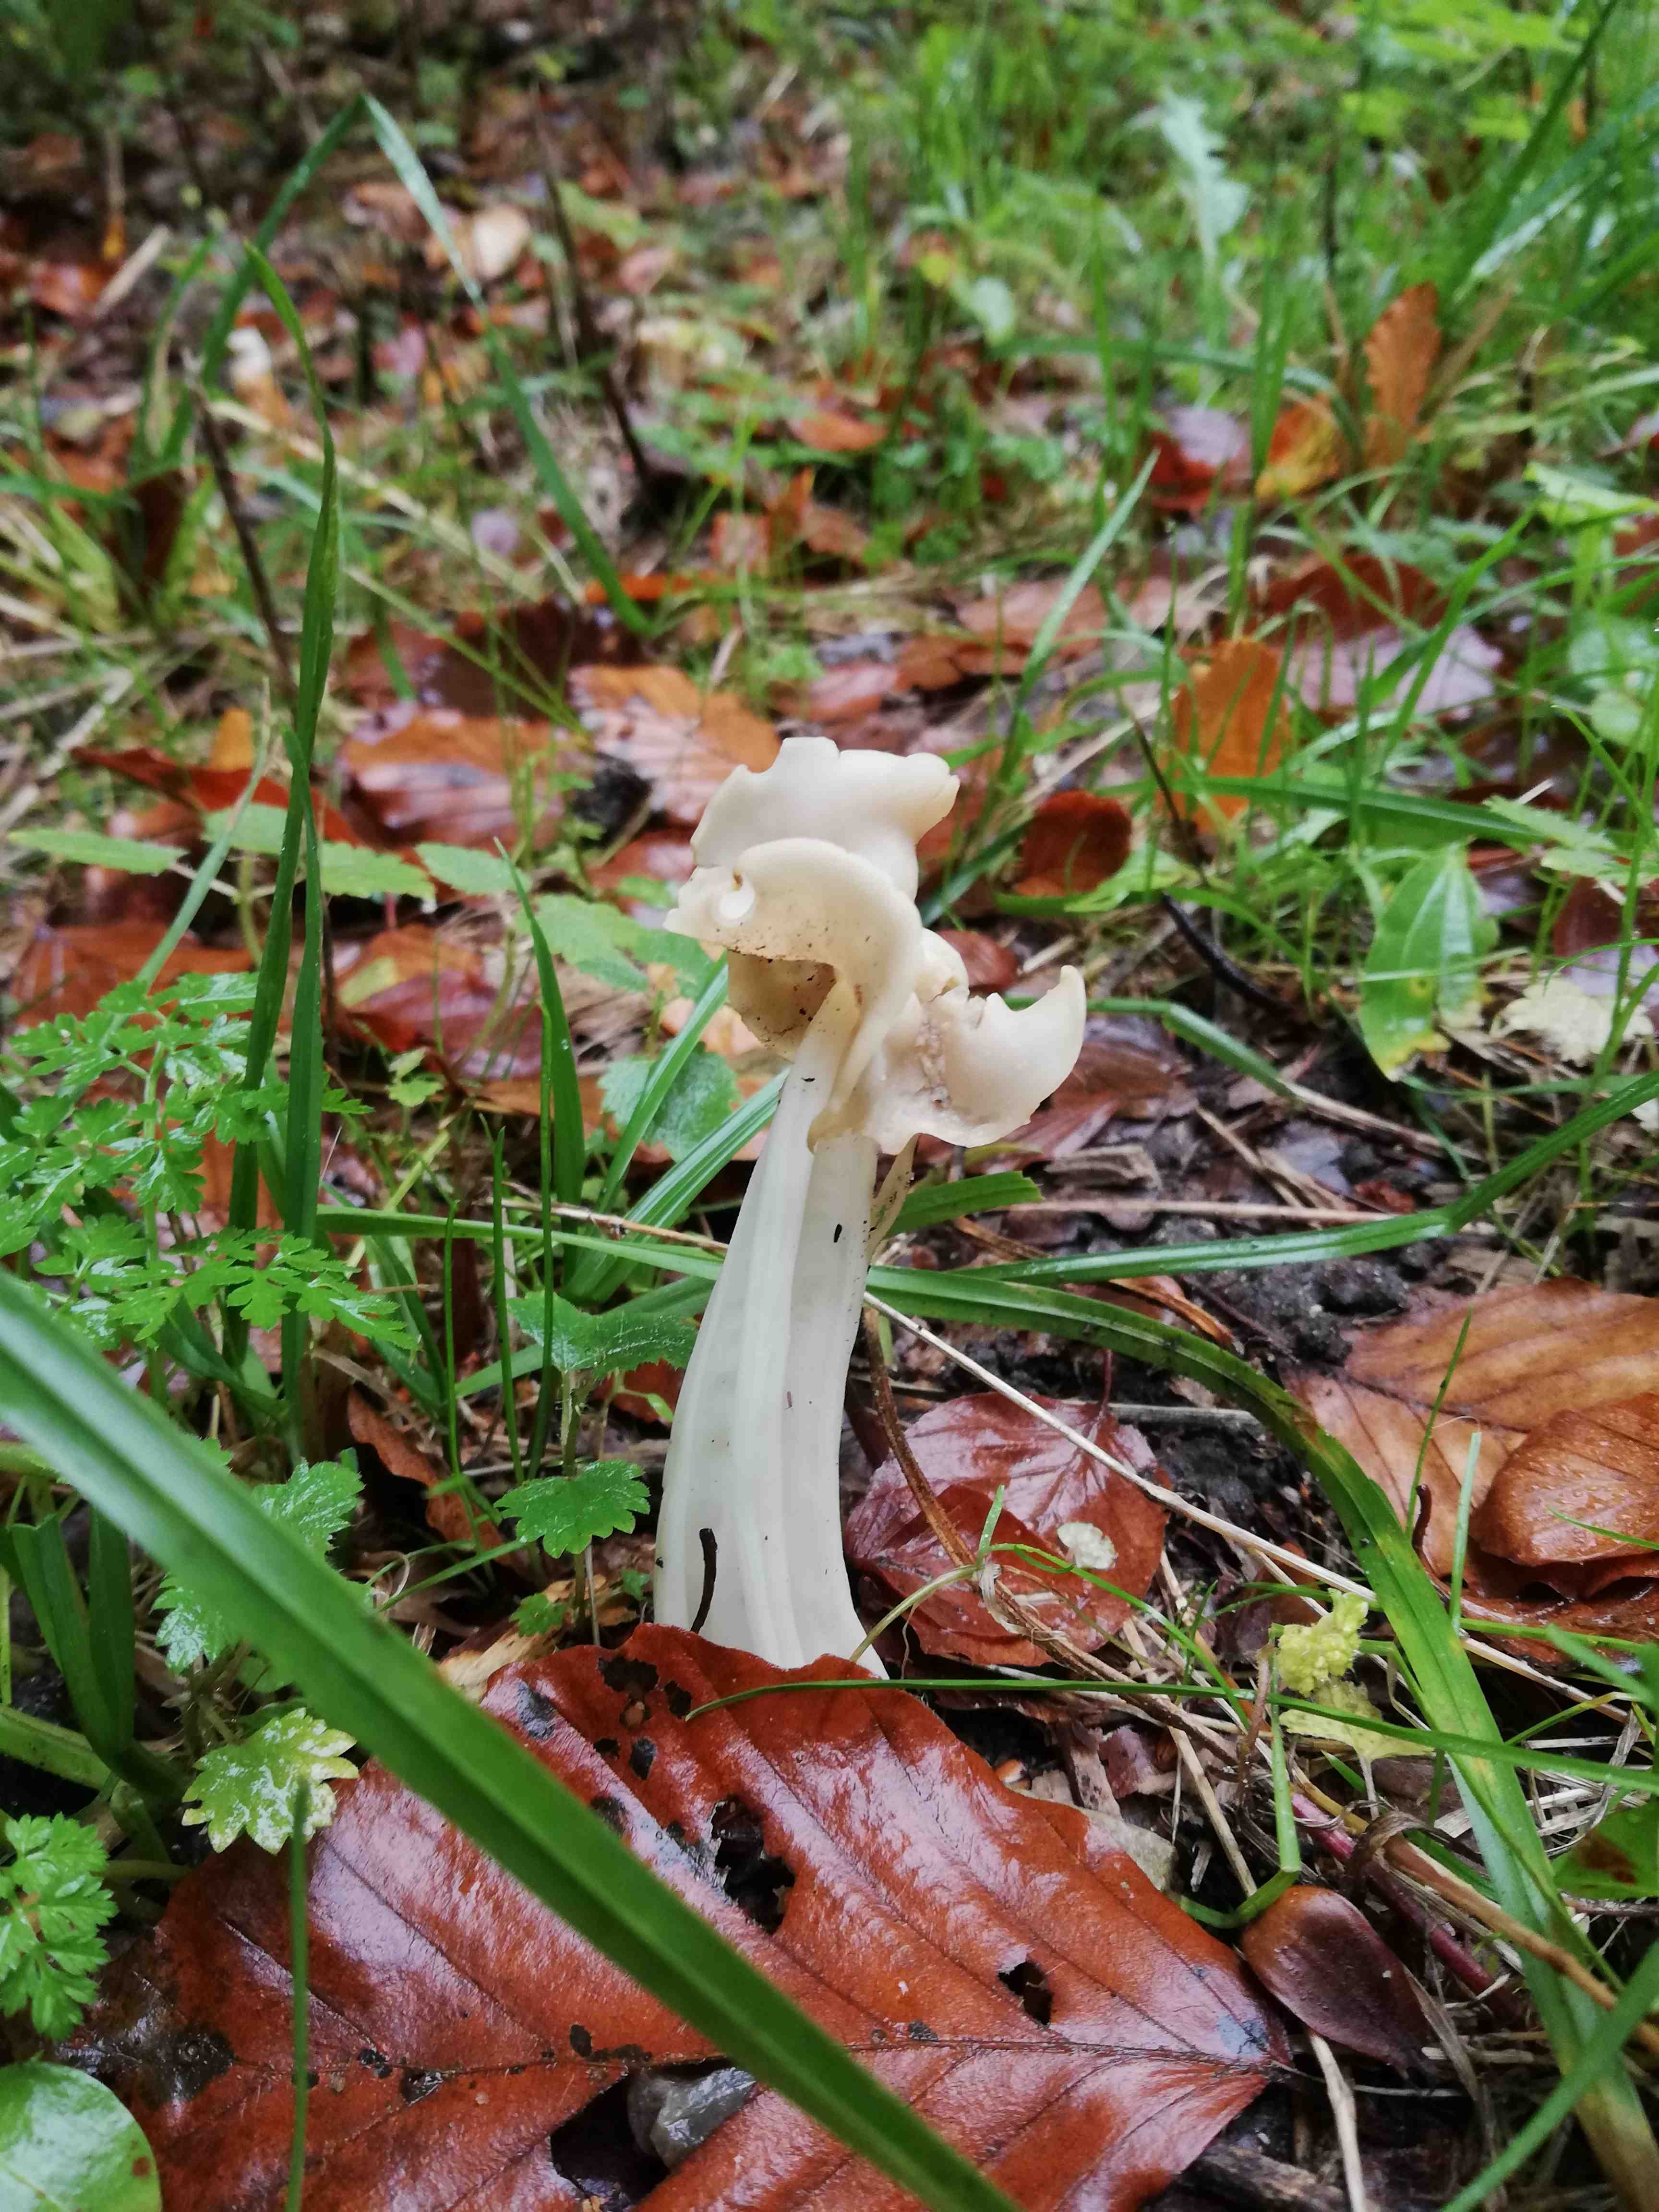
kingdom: Fungi
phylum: Ascomycota
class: Pezizomycetes
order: Pezizales
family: Helvellaceae
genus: Helvella
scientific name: Helvella crispa
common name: kruset foldhat
